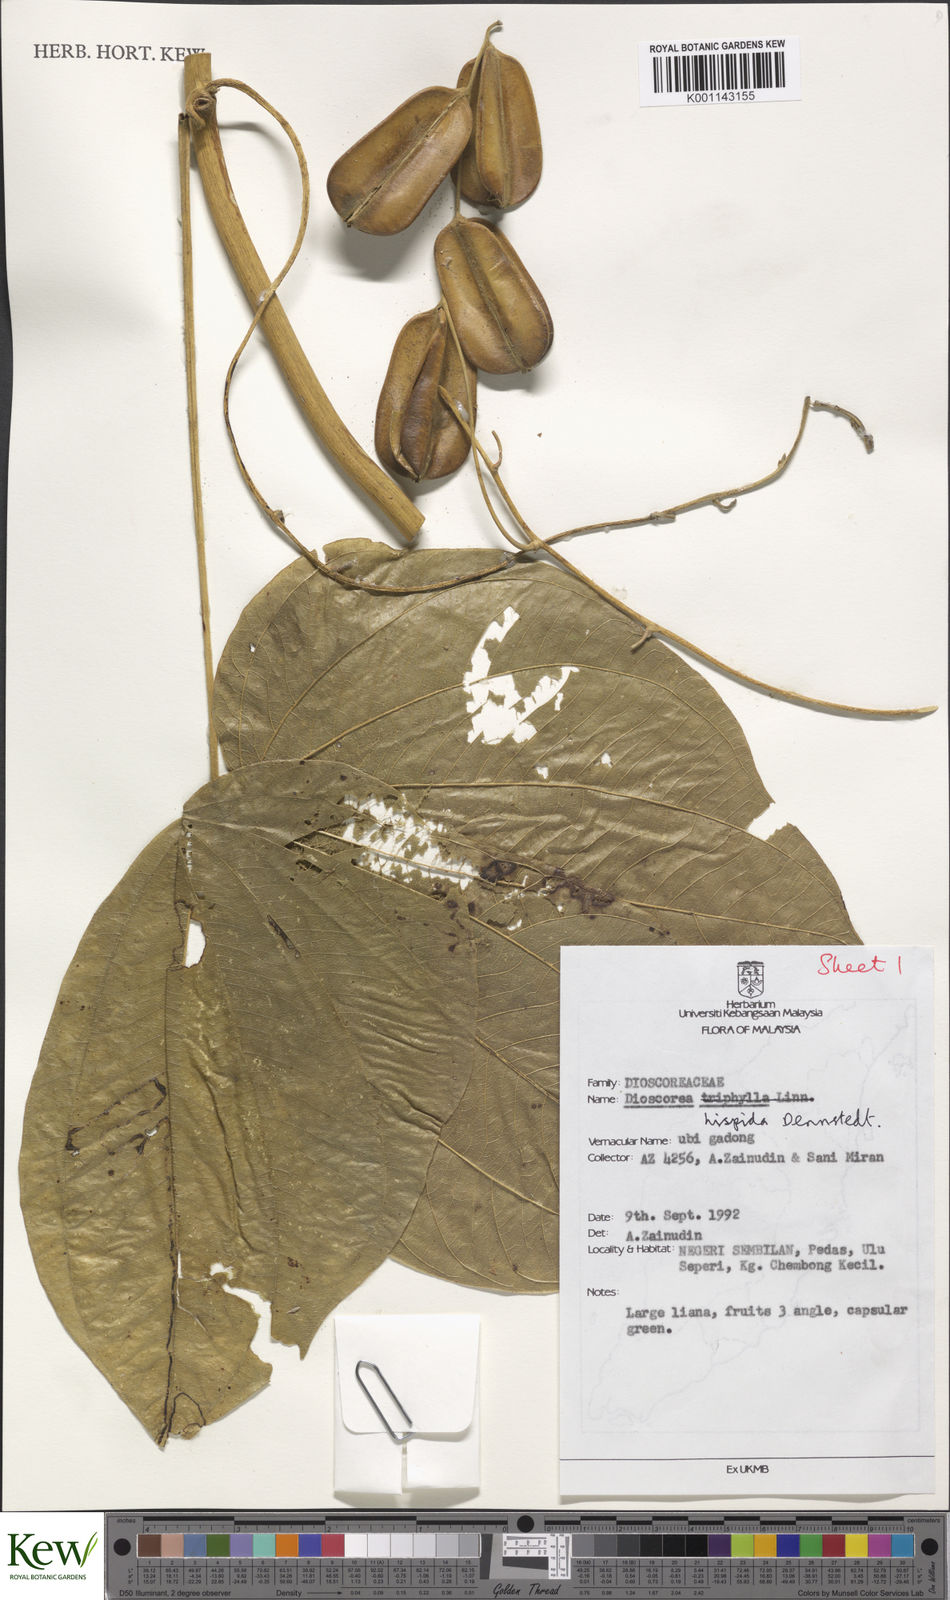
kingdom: Plantae
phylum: Tracheophyta
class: Liliopsida
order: Dioscoreales
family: Dioscoreaceae
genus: Dioscorea
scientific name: Dioscorea hispida
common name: Asiatic bitter yam
